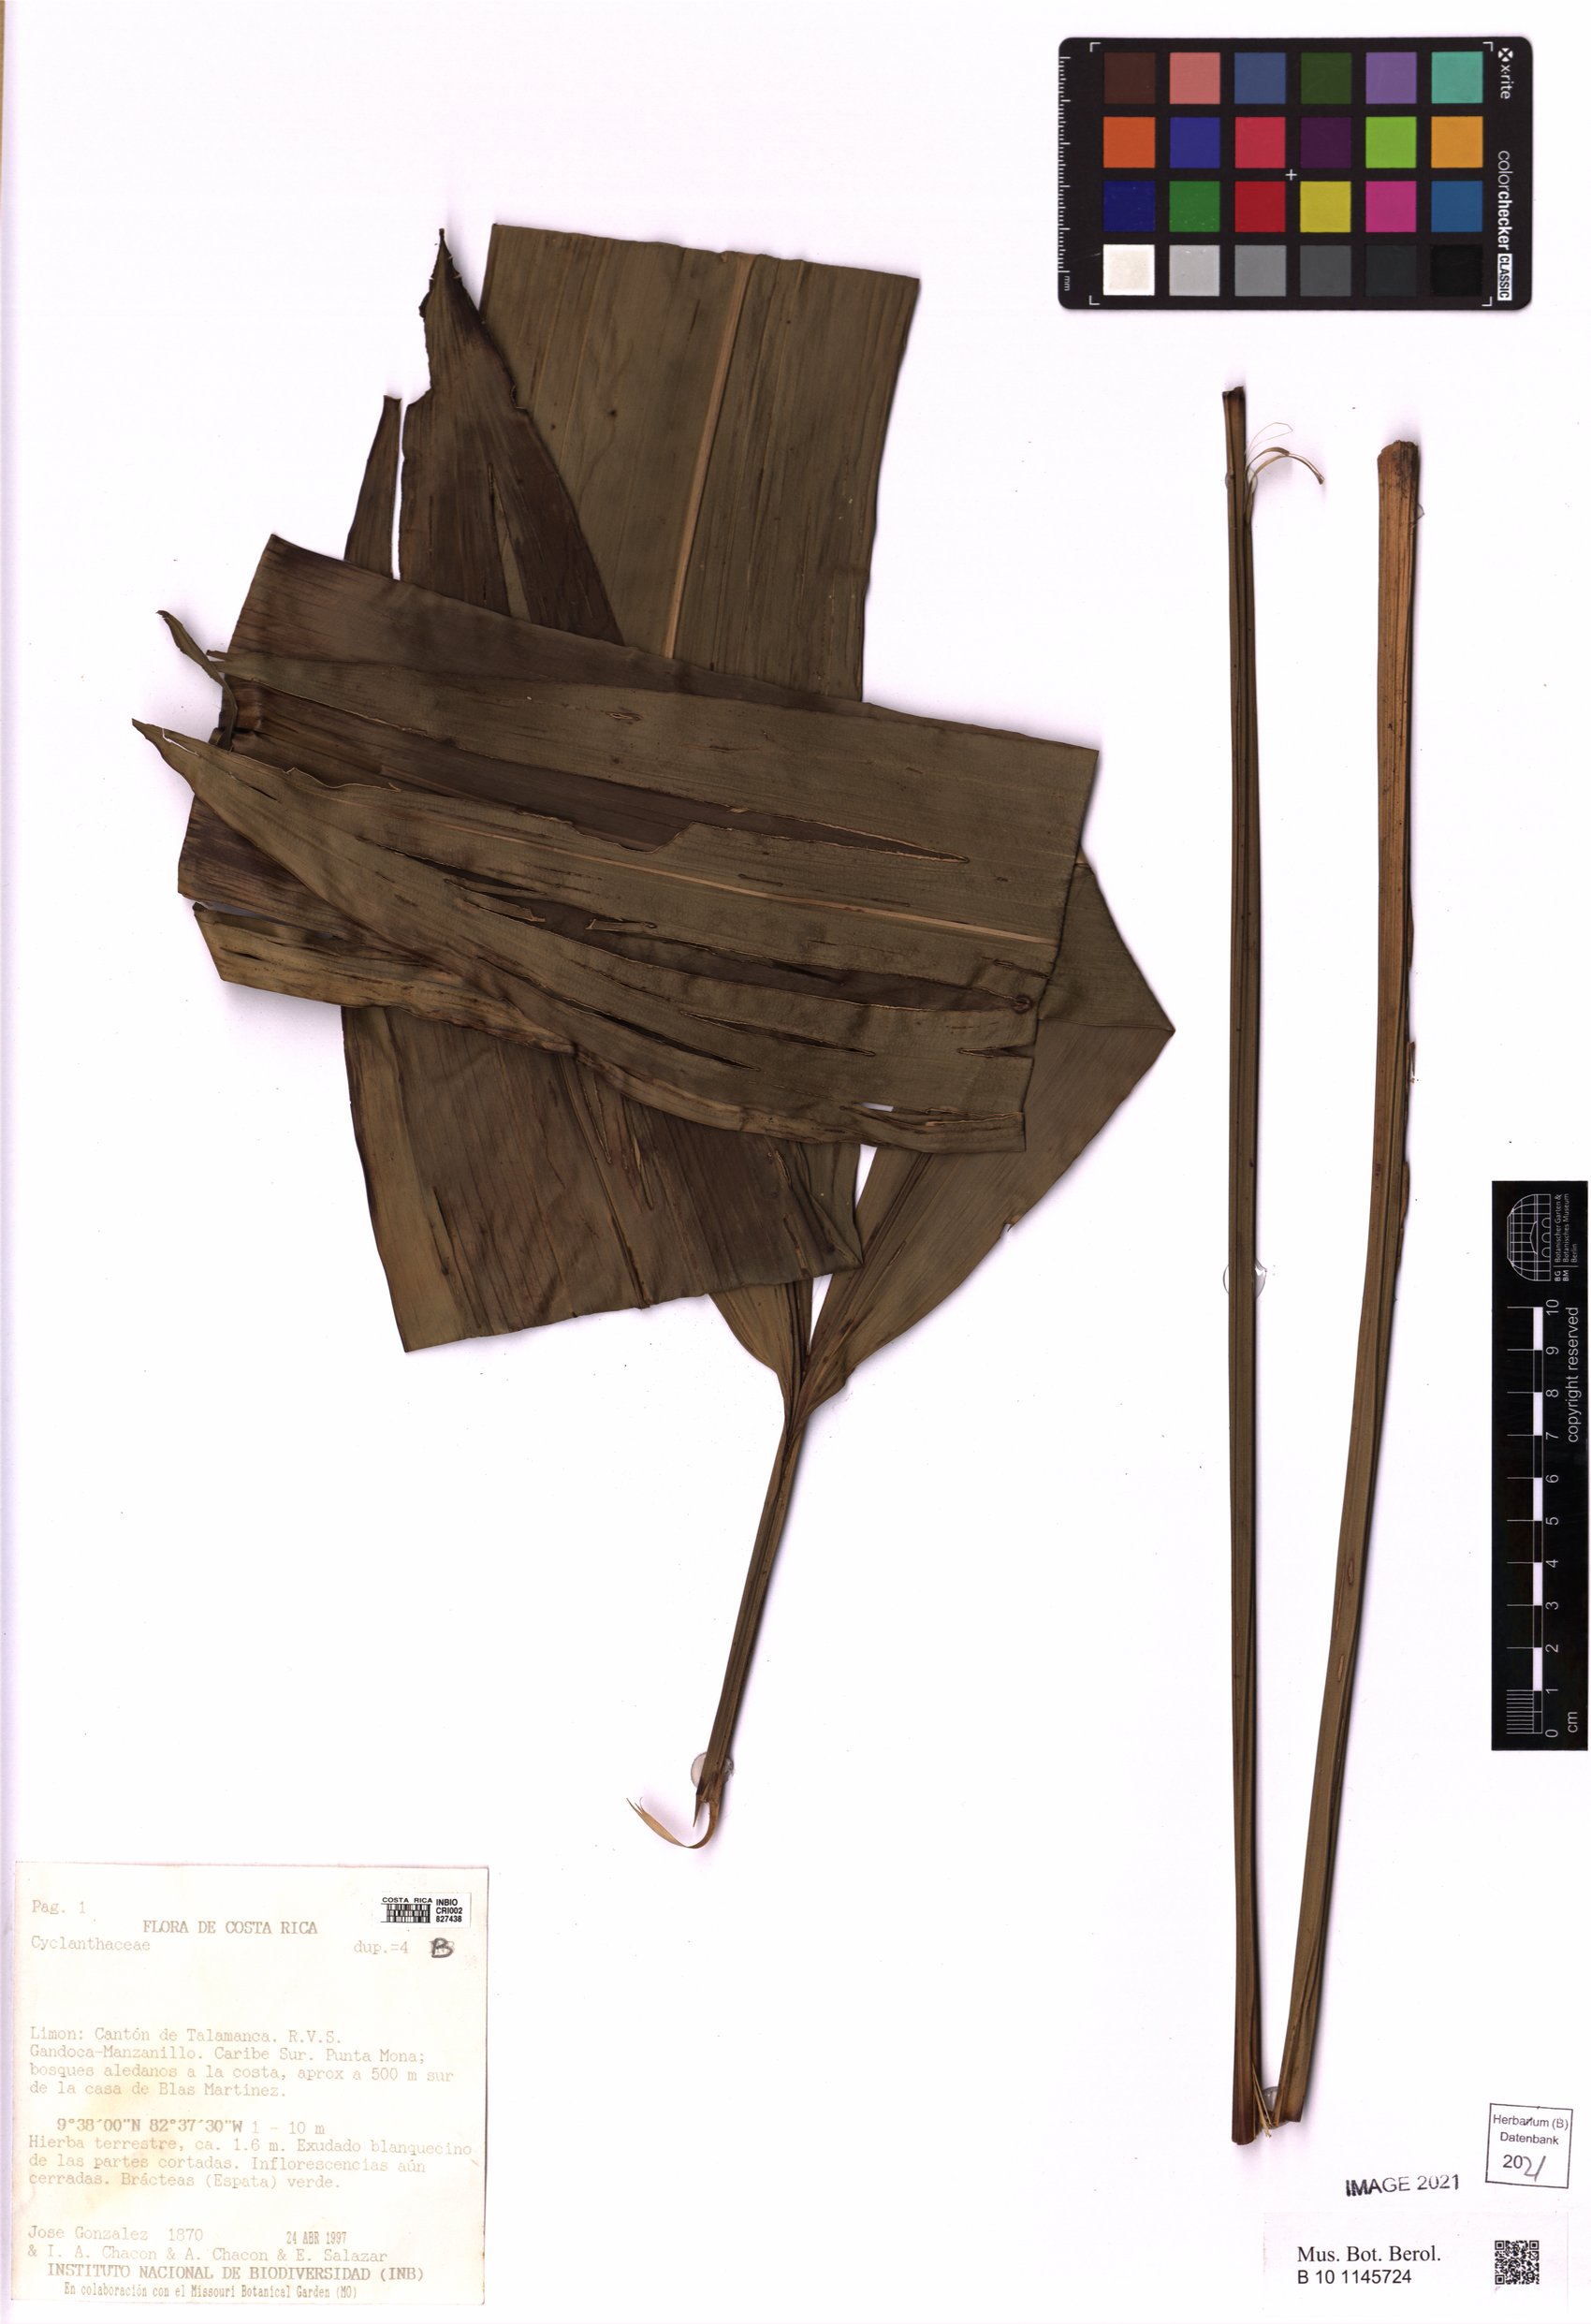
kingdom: Plantae
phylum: Tracheophyta
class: Magnoliopsida
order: Solanales
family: Solanaceae
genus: Solanum
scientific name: Solanum rovirosanum
